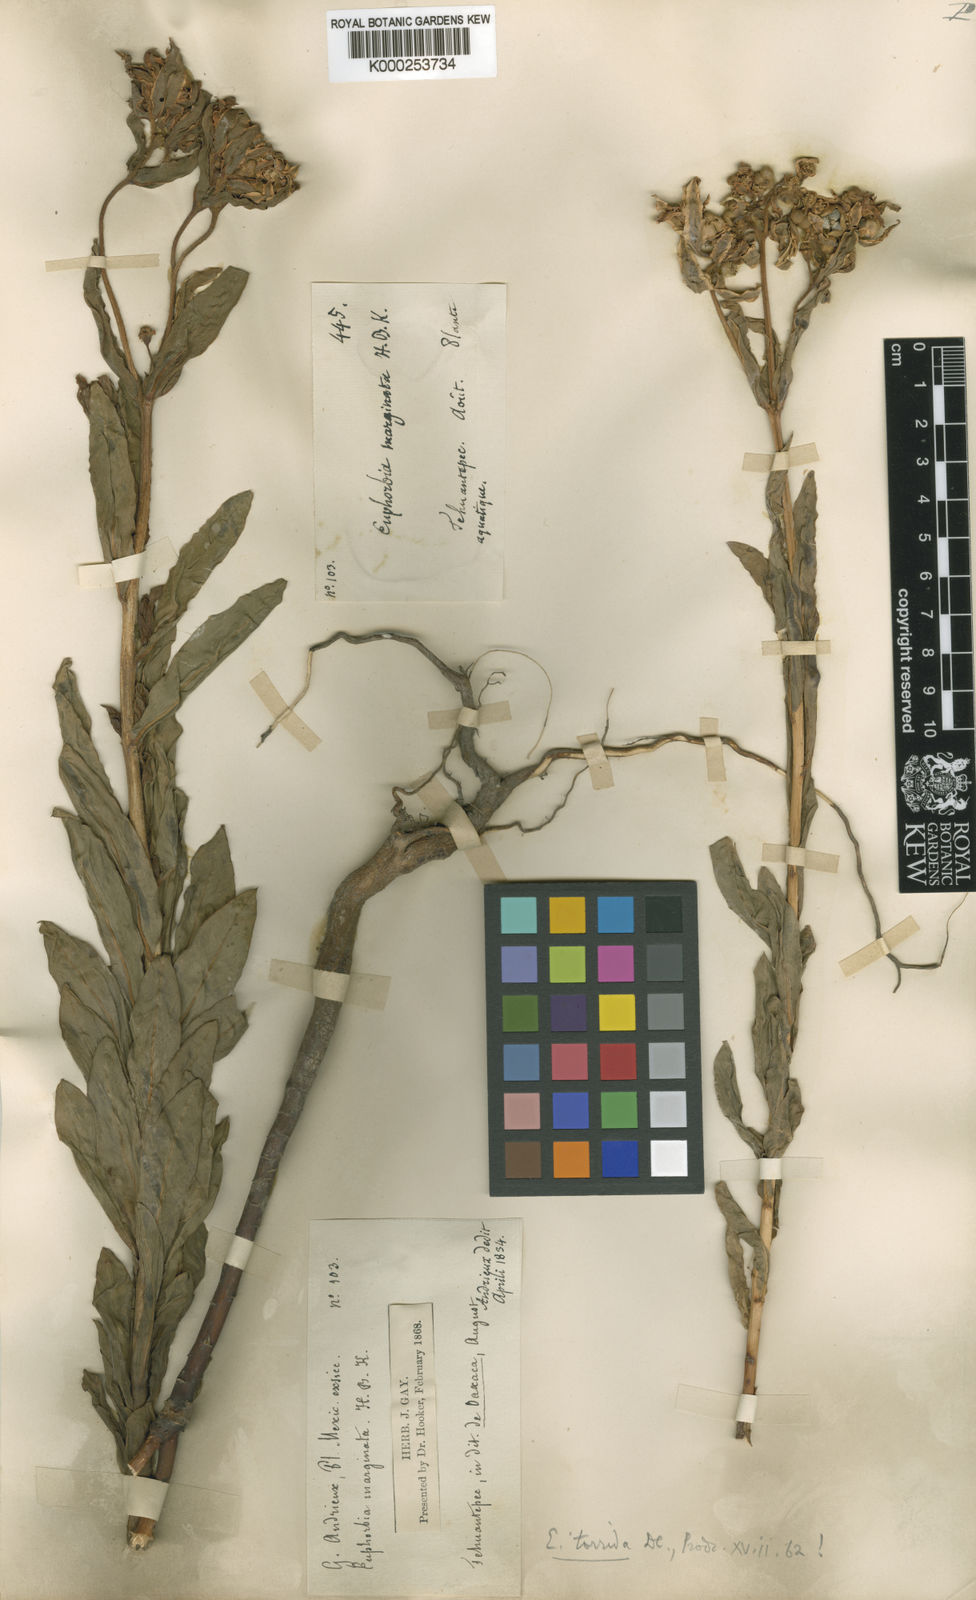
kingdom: Plantae
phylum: Tracheophyta
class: Magnoliopsida
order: Malpighiales
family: Euphorbiaceae
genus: Euphorbia
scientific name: Euphorbia marginata
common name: Ghostweed
